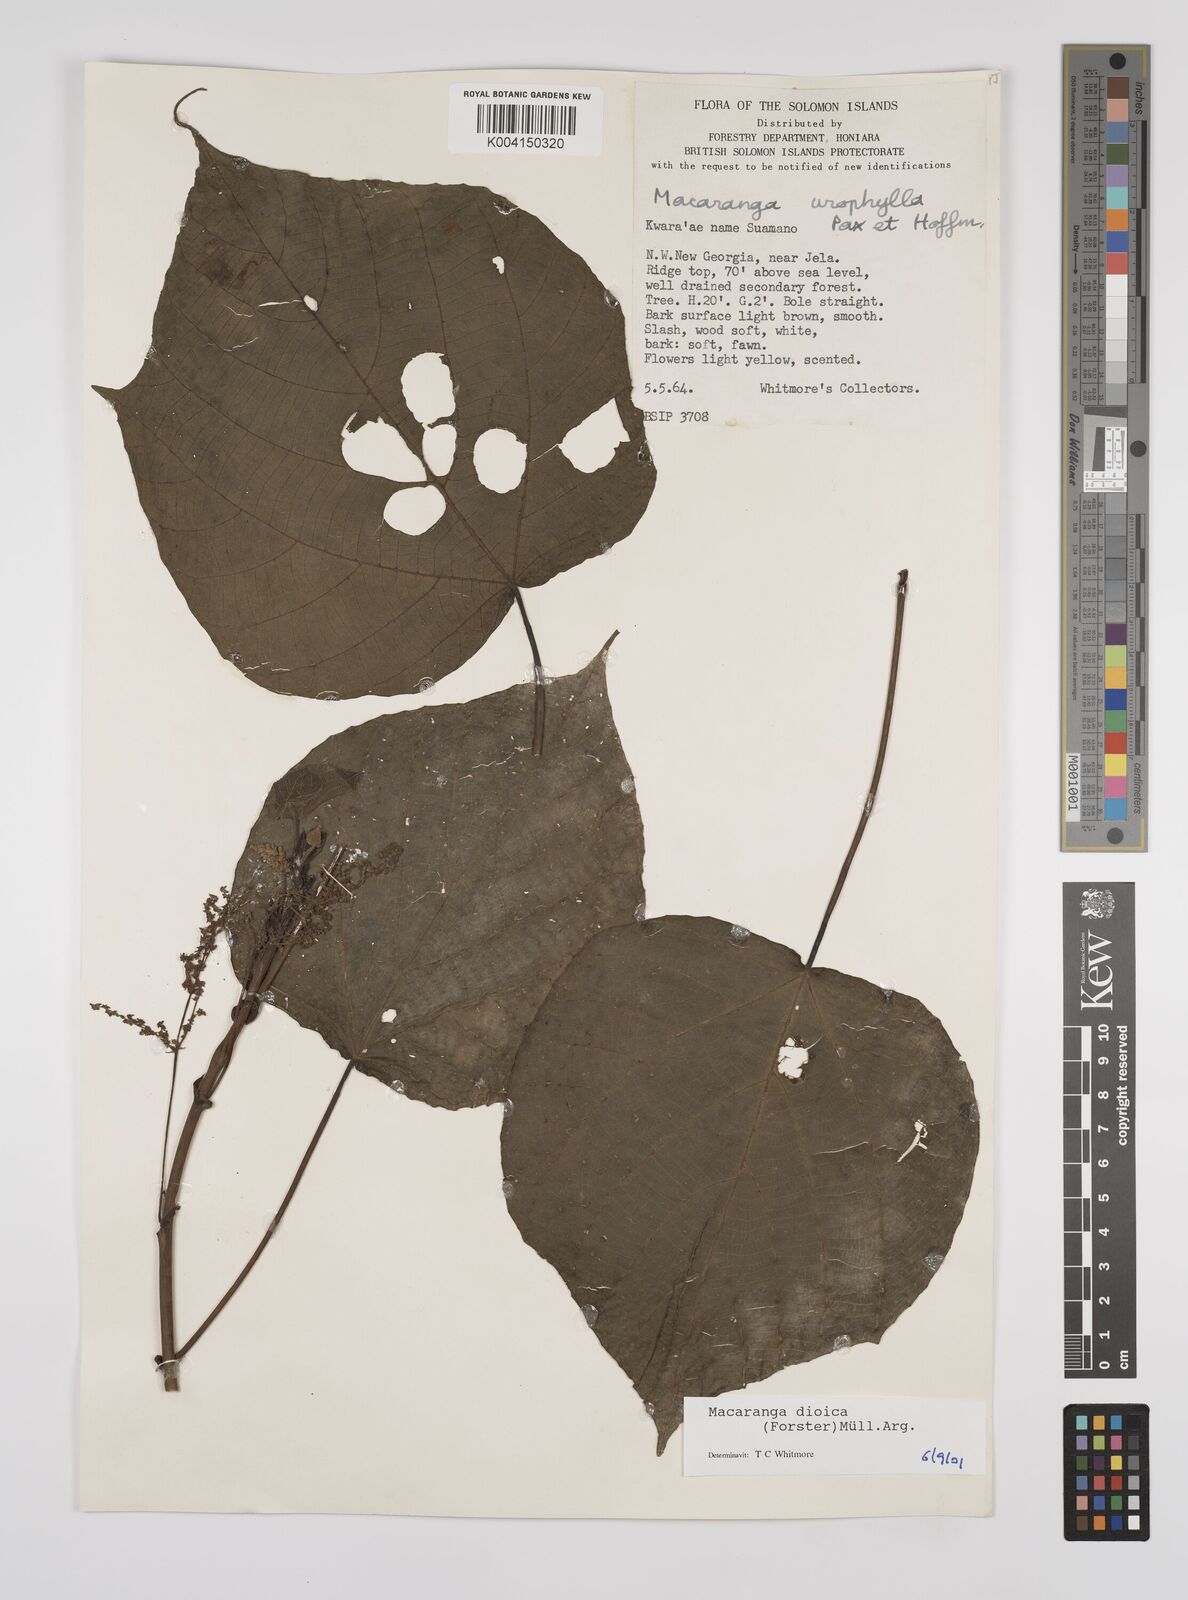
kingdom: Plantae
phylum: Tracheophyta
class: Magnoliopsida
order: Malpighiales
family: Euphorbiaceae
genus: Macaranga
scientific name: Macaranga dioica
